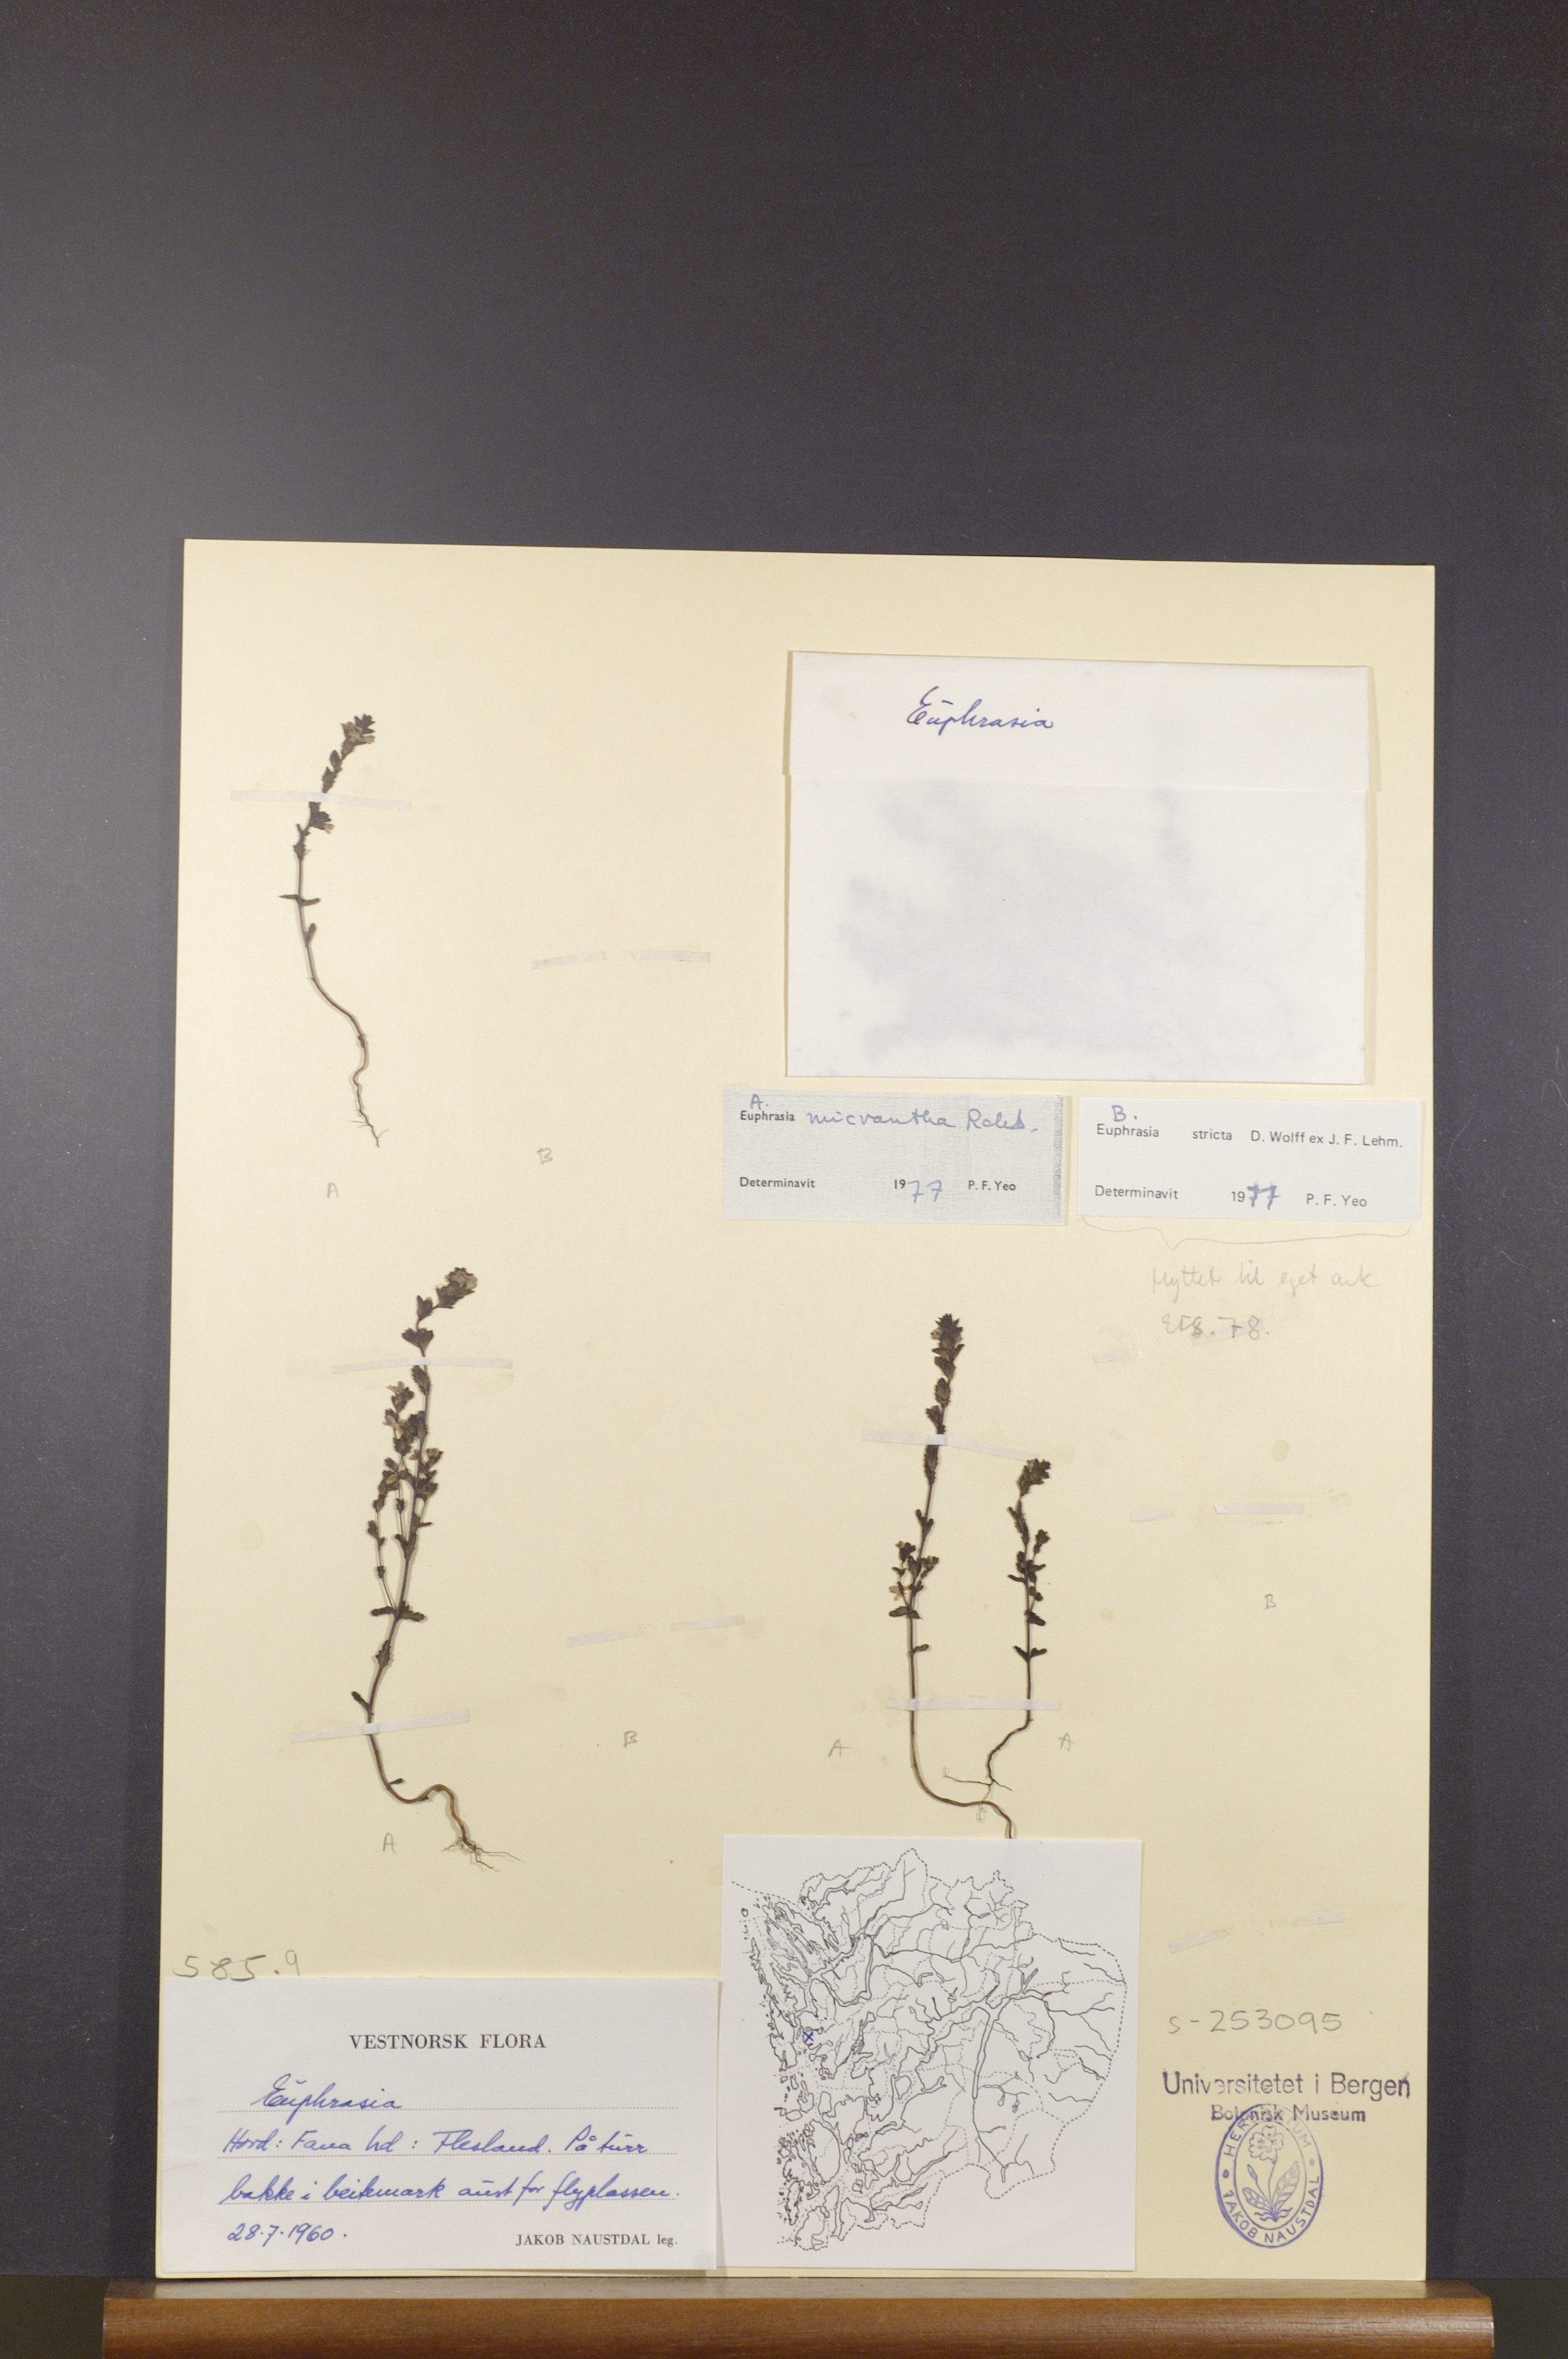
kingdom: Plantae
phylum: Tracheophyta
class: Magnoliopsida
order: Lamiales
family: Orobanchaceae
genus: Euphrasia
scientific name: Euphrasia micrantha
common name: Northern eyebright
